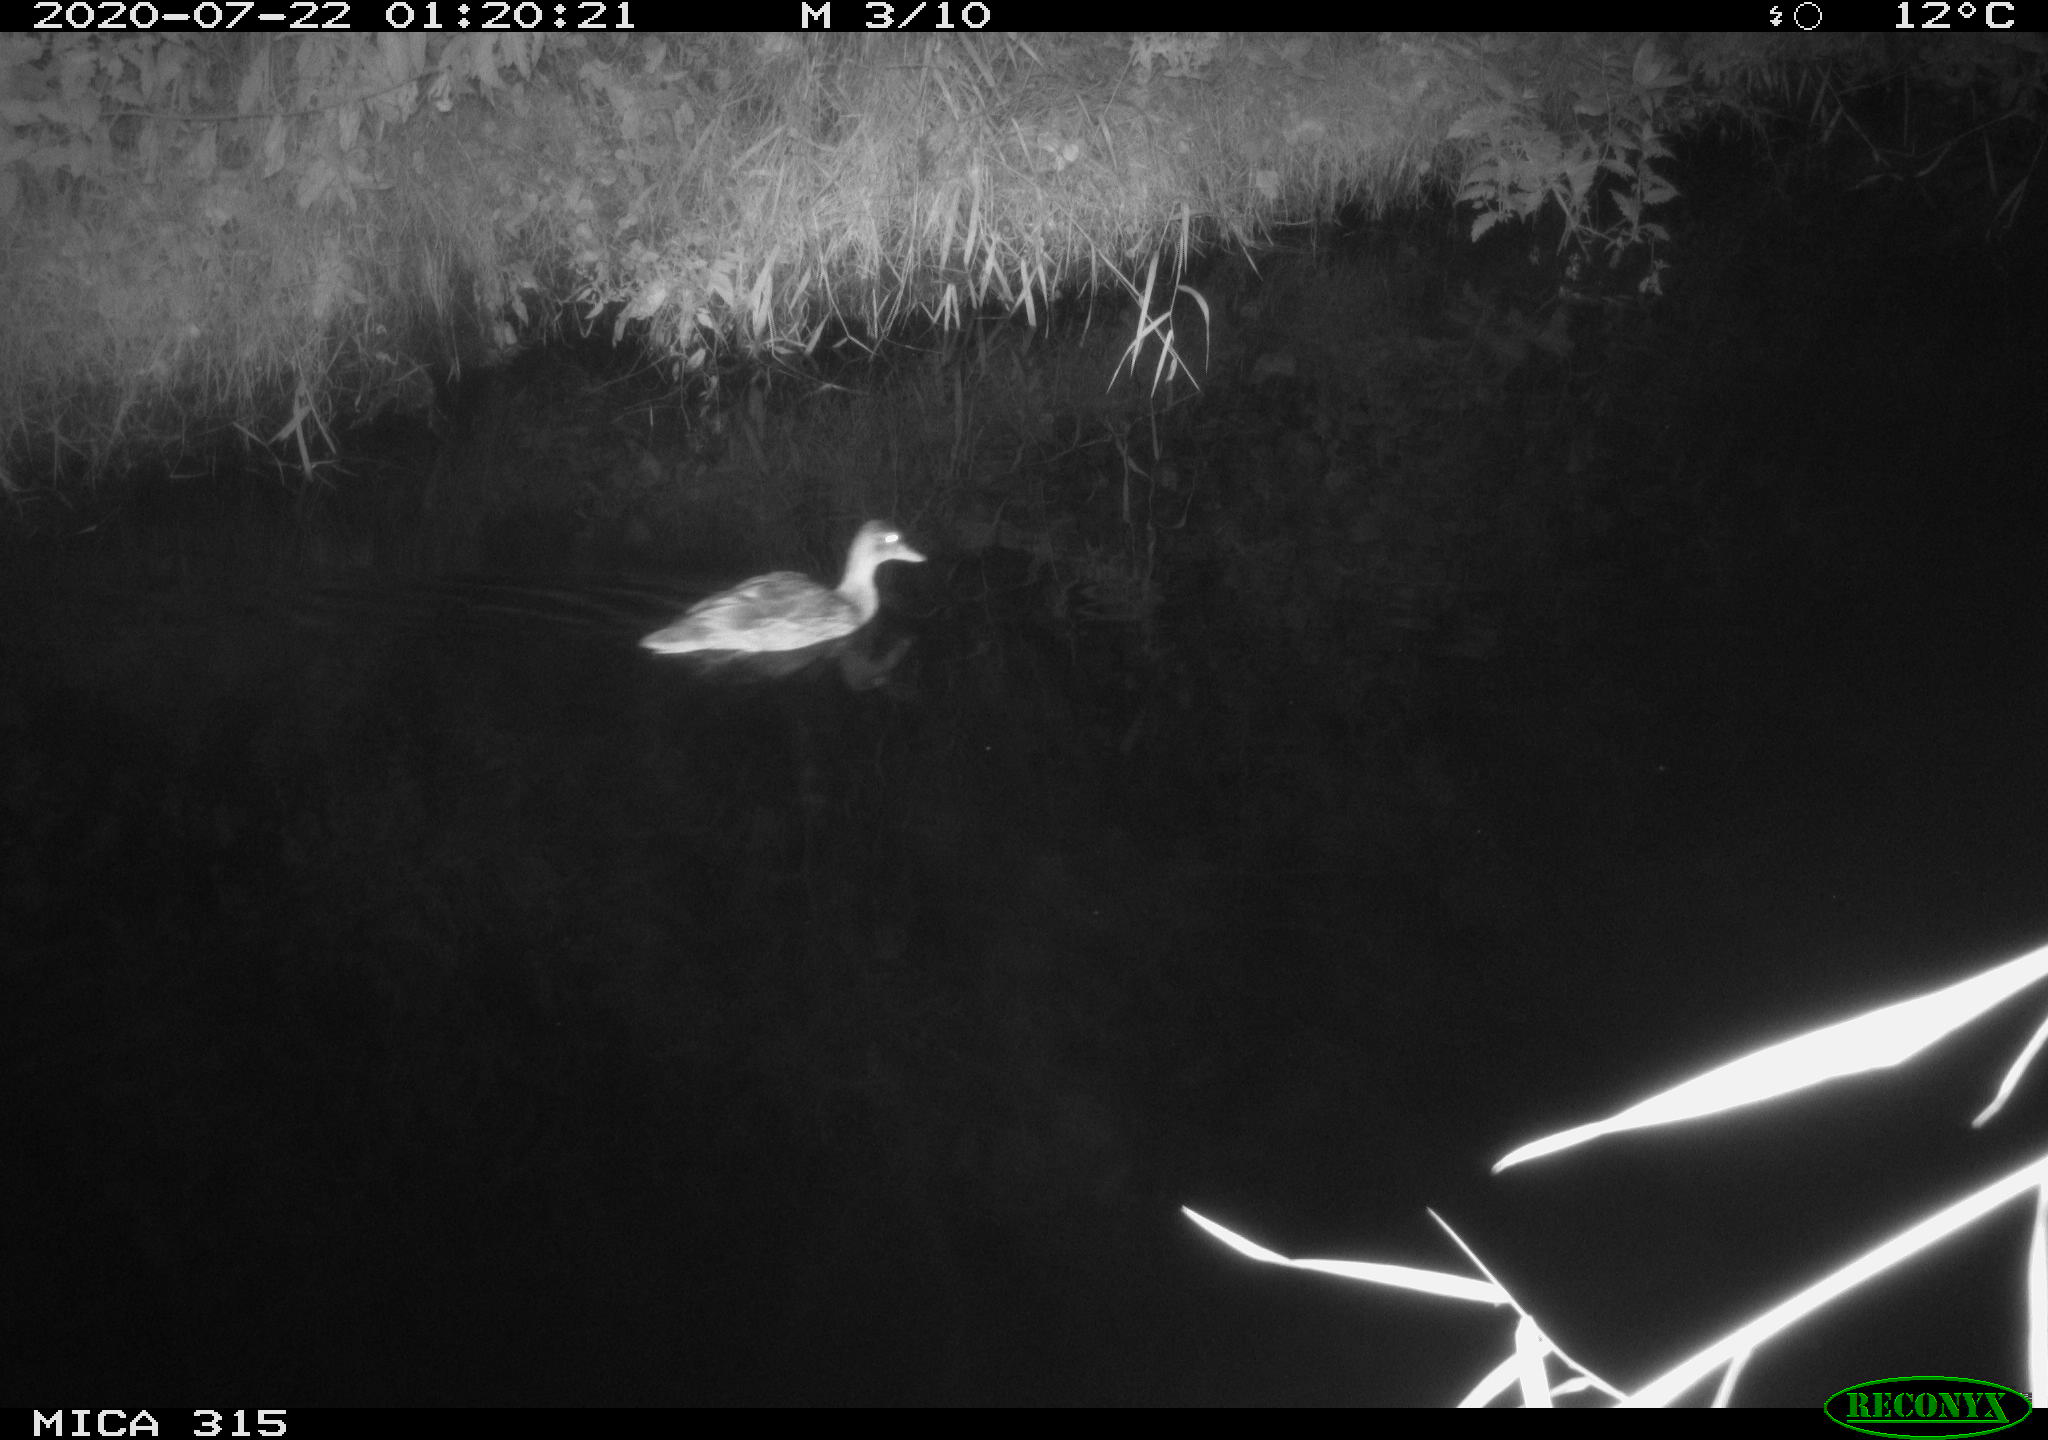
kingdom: Animalia
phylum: Chordata
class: Aves
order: Anseriformes
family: Anatidae
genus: Anas
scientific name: Anas platyrhynchos
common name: Mallard
